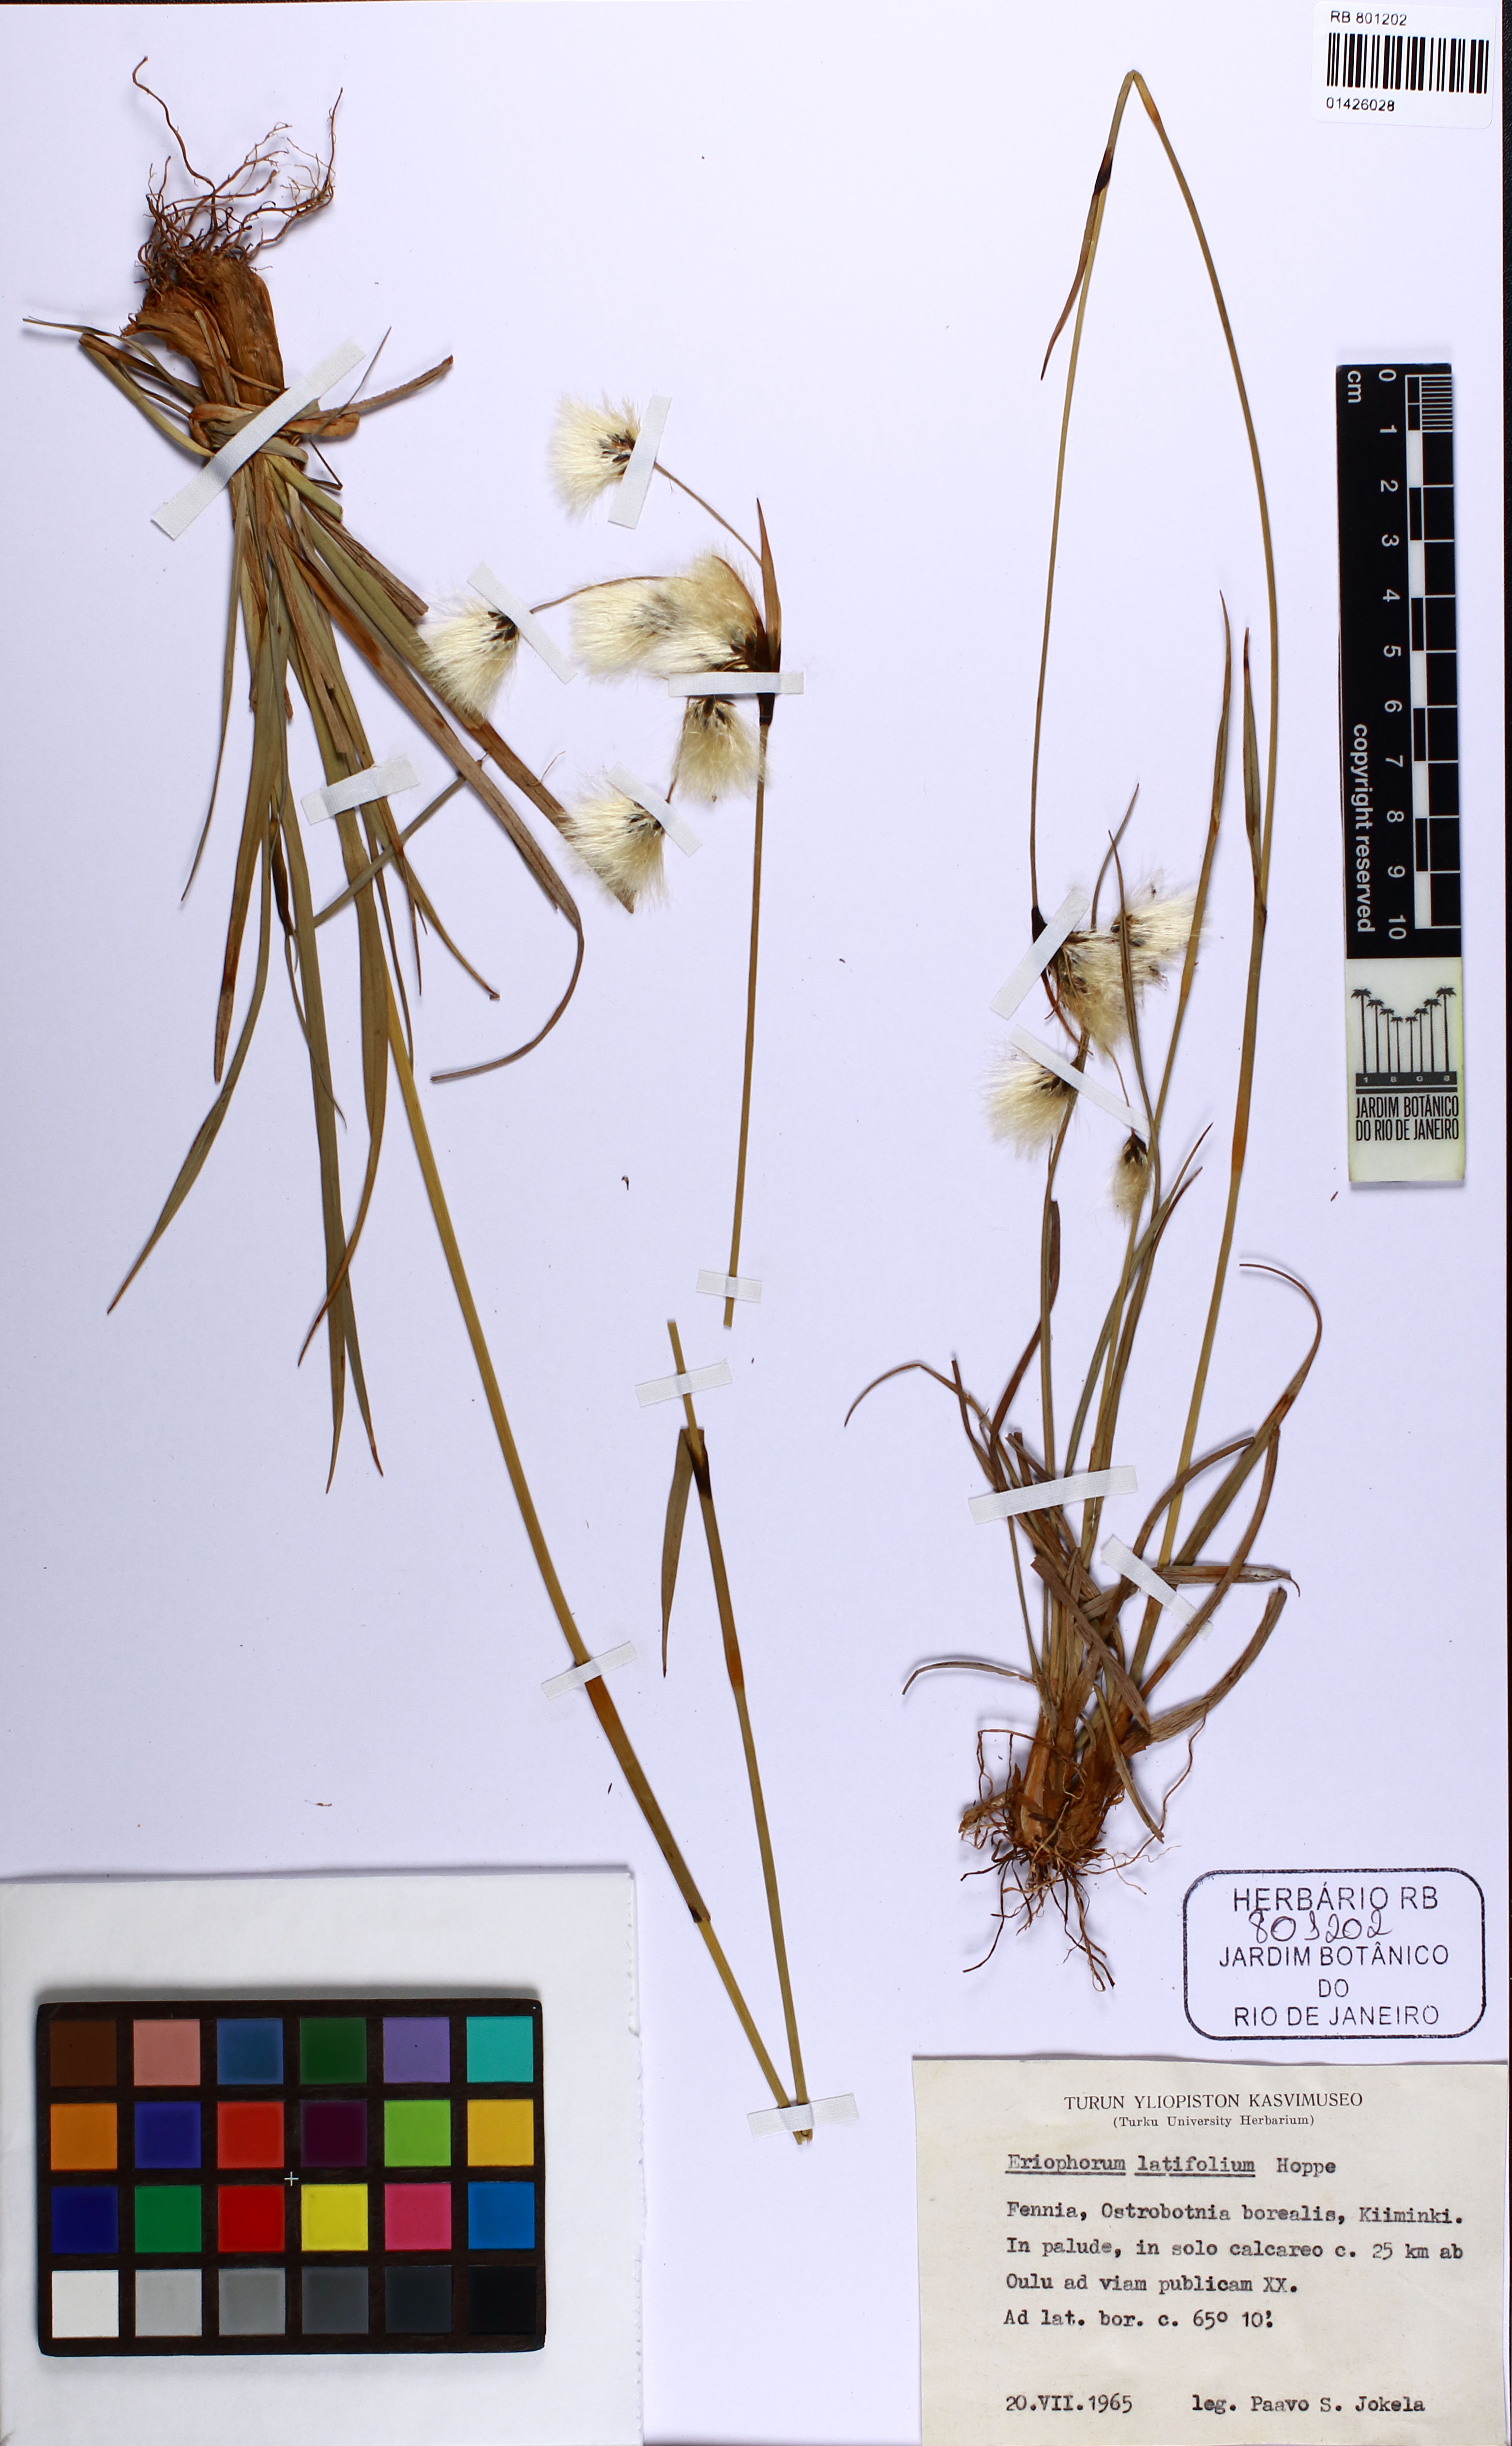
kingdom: Plantae
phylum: Tracheophyta
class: Liliopsida
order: Poales
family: Cyperaceae
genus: Eriophorum
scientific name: Eriophorum latifolium
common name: Broad-leaved cottongrass
